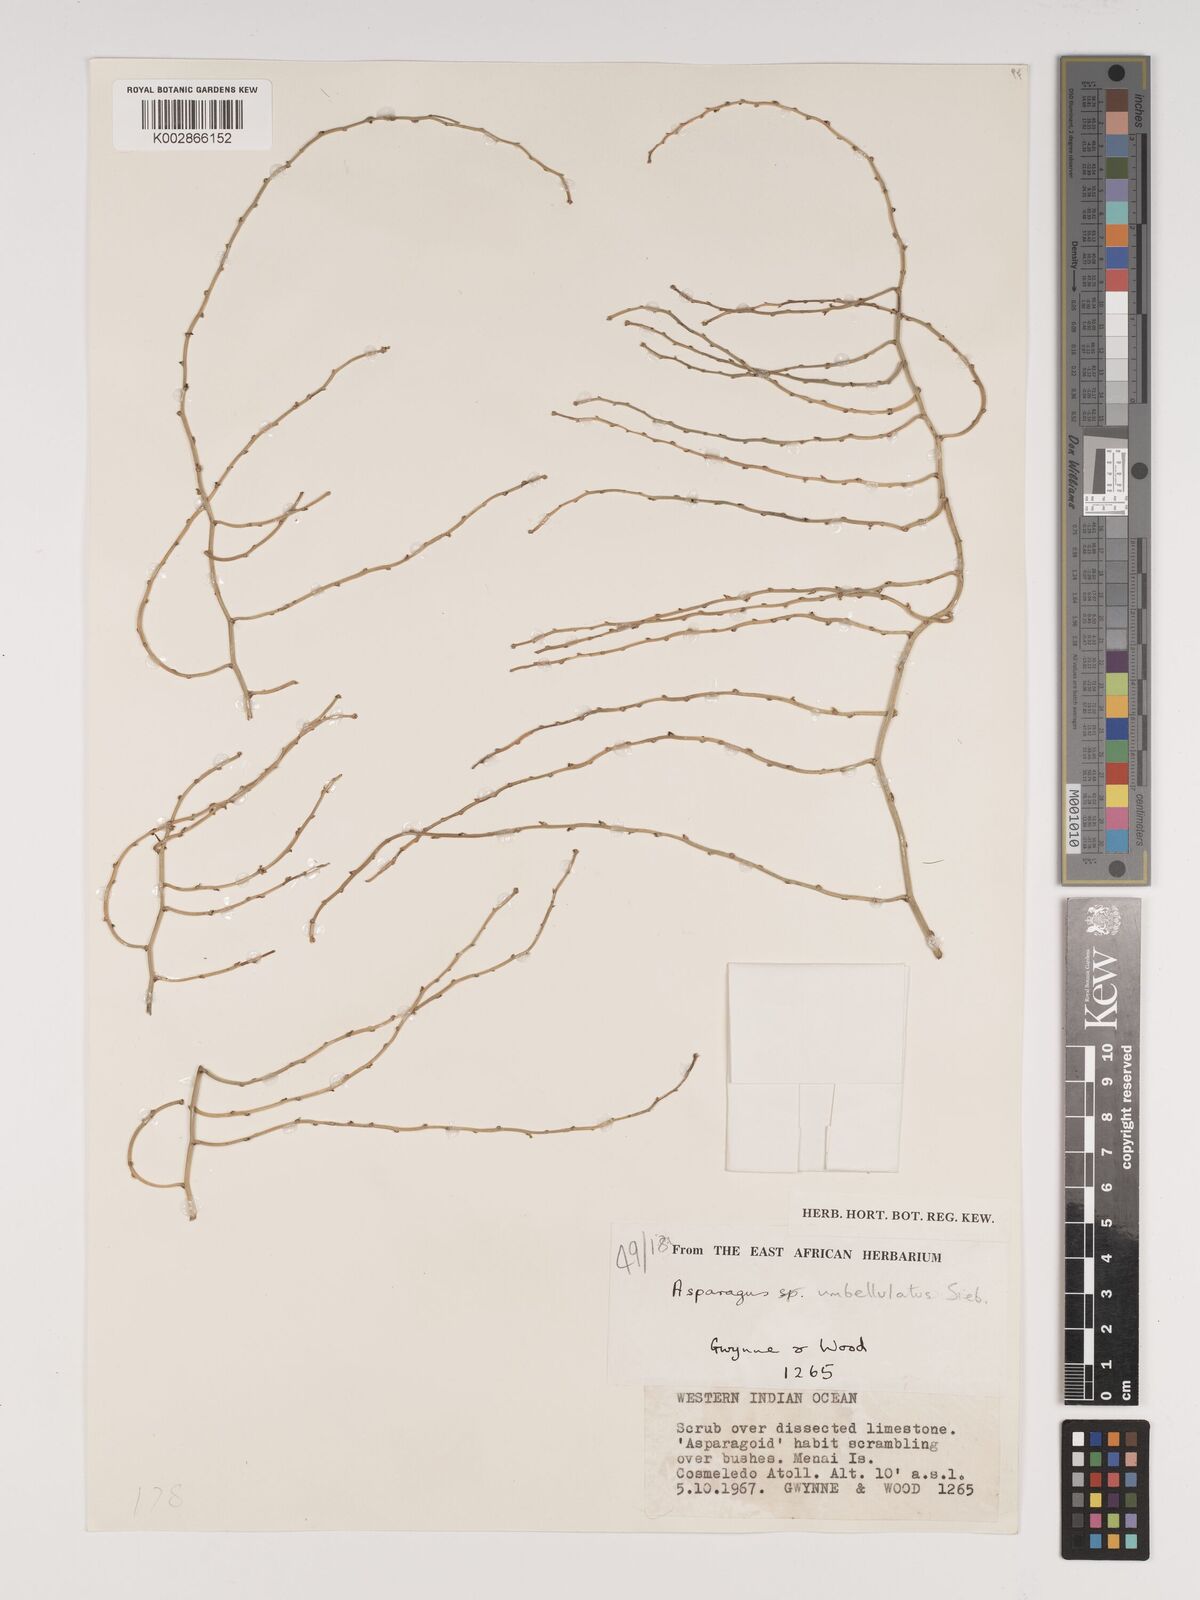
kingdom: Plantae
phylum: Tracheophyta
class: Liliopsida
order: Asparagales
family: Asparagaceae
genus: Asparagus
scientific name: Asparagus umbellulatus
